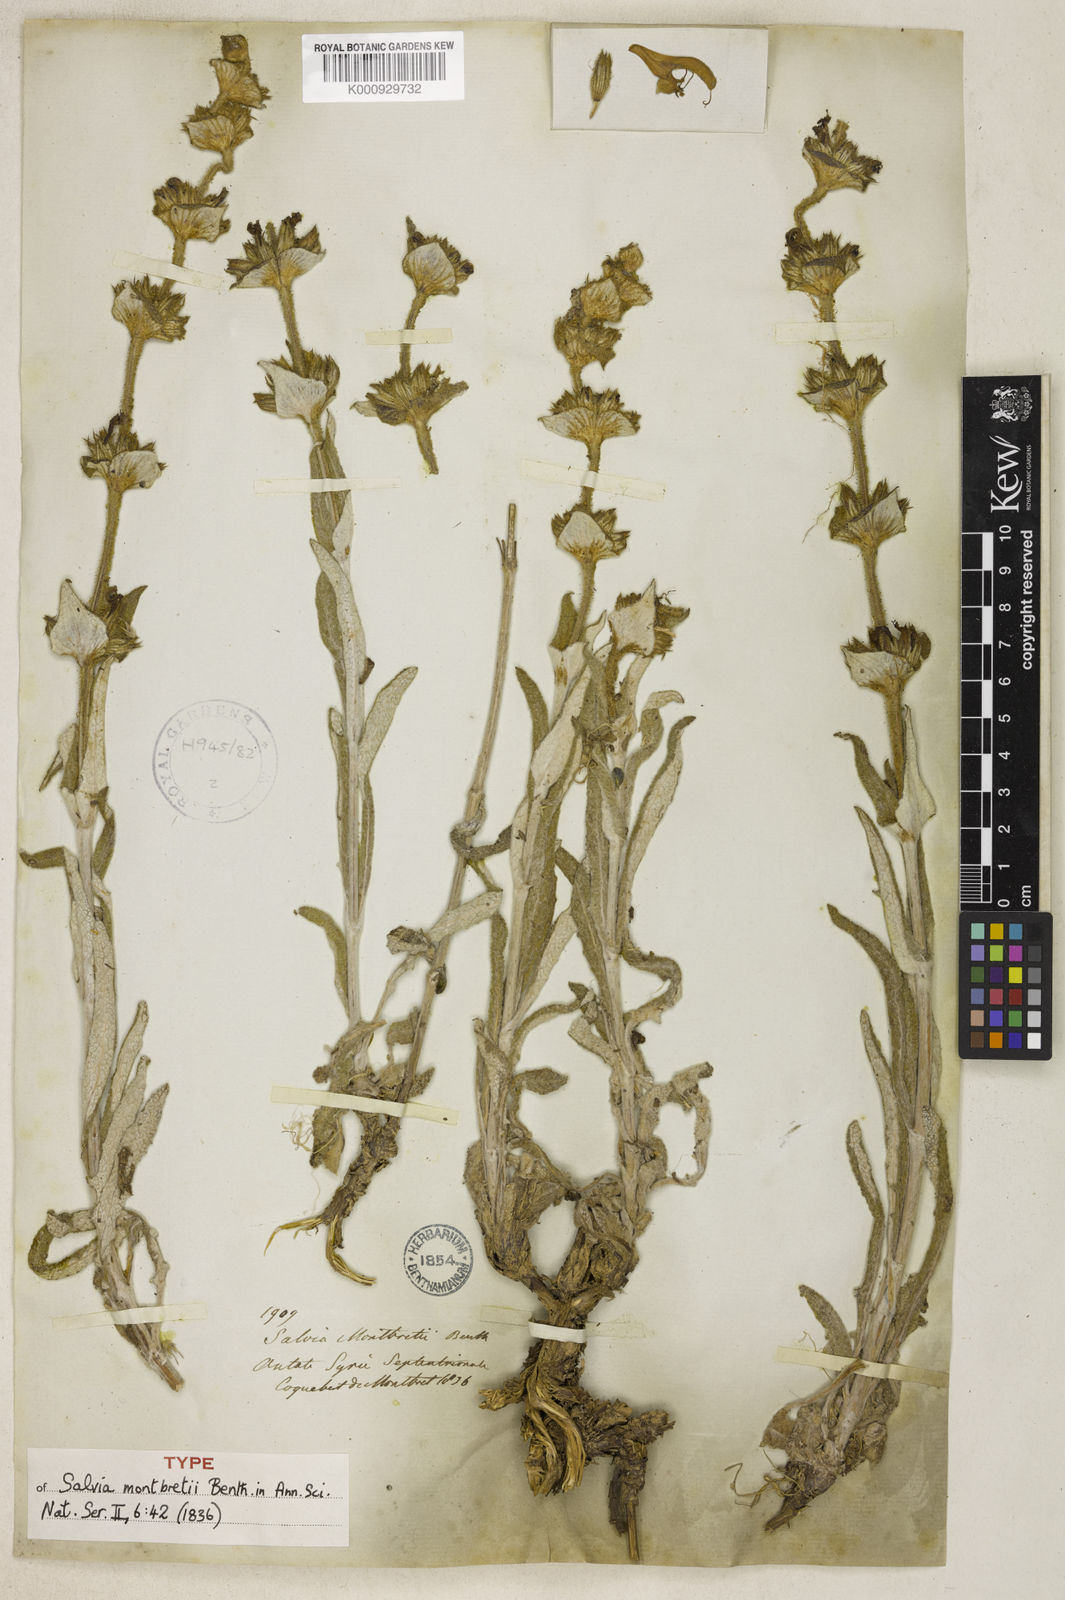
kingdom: Plantae
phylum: Tracheophyta
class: Magnoliopsida
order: Lamiales
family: Lamiaceae
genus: Salvia
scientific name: Salvia montbretii
